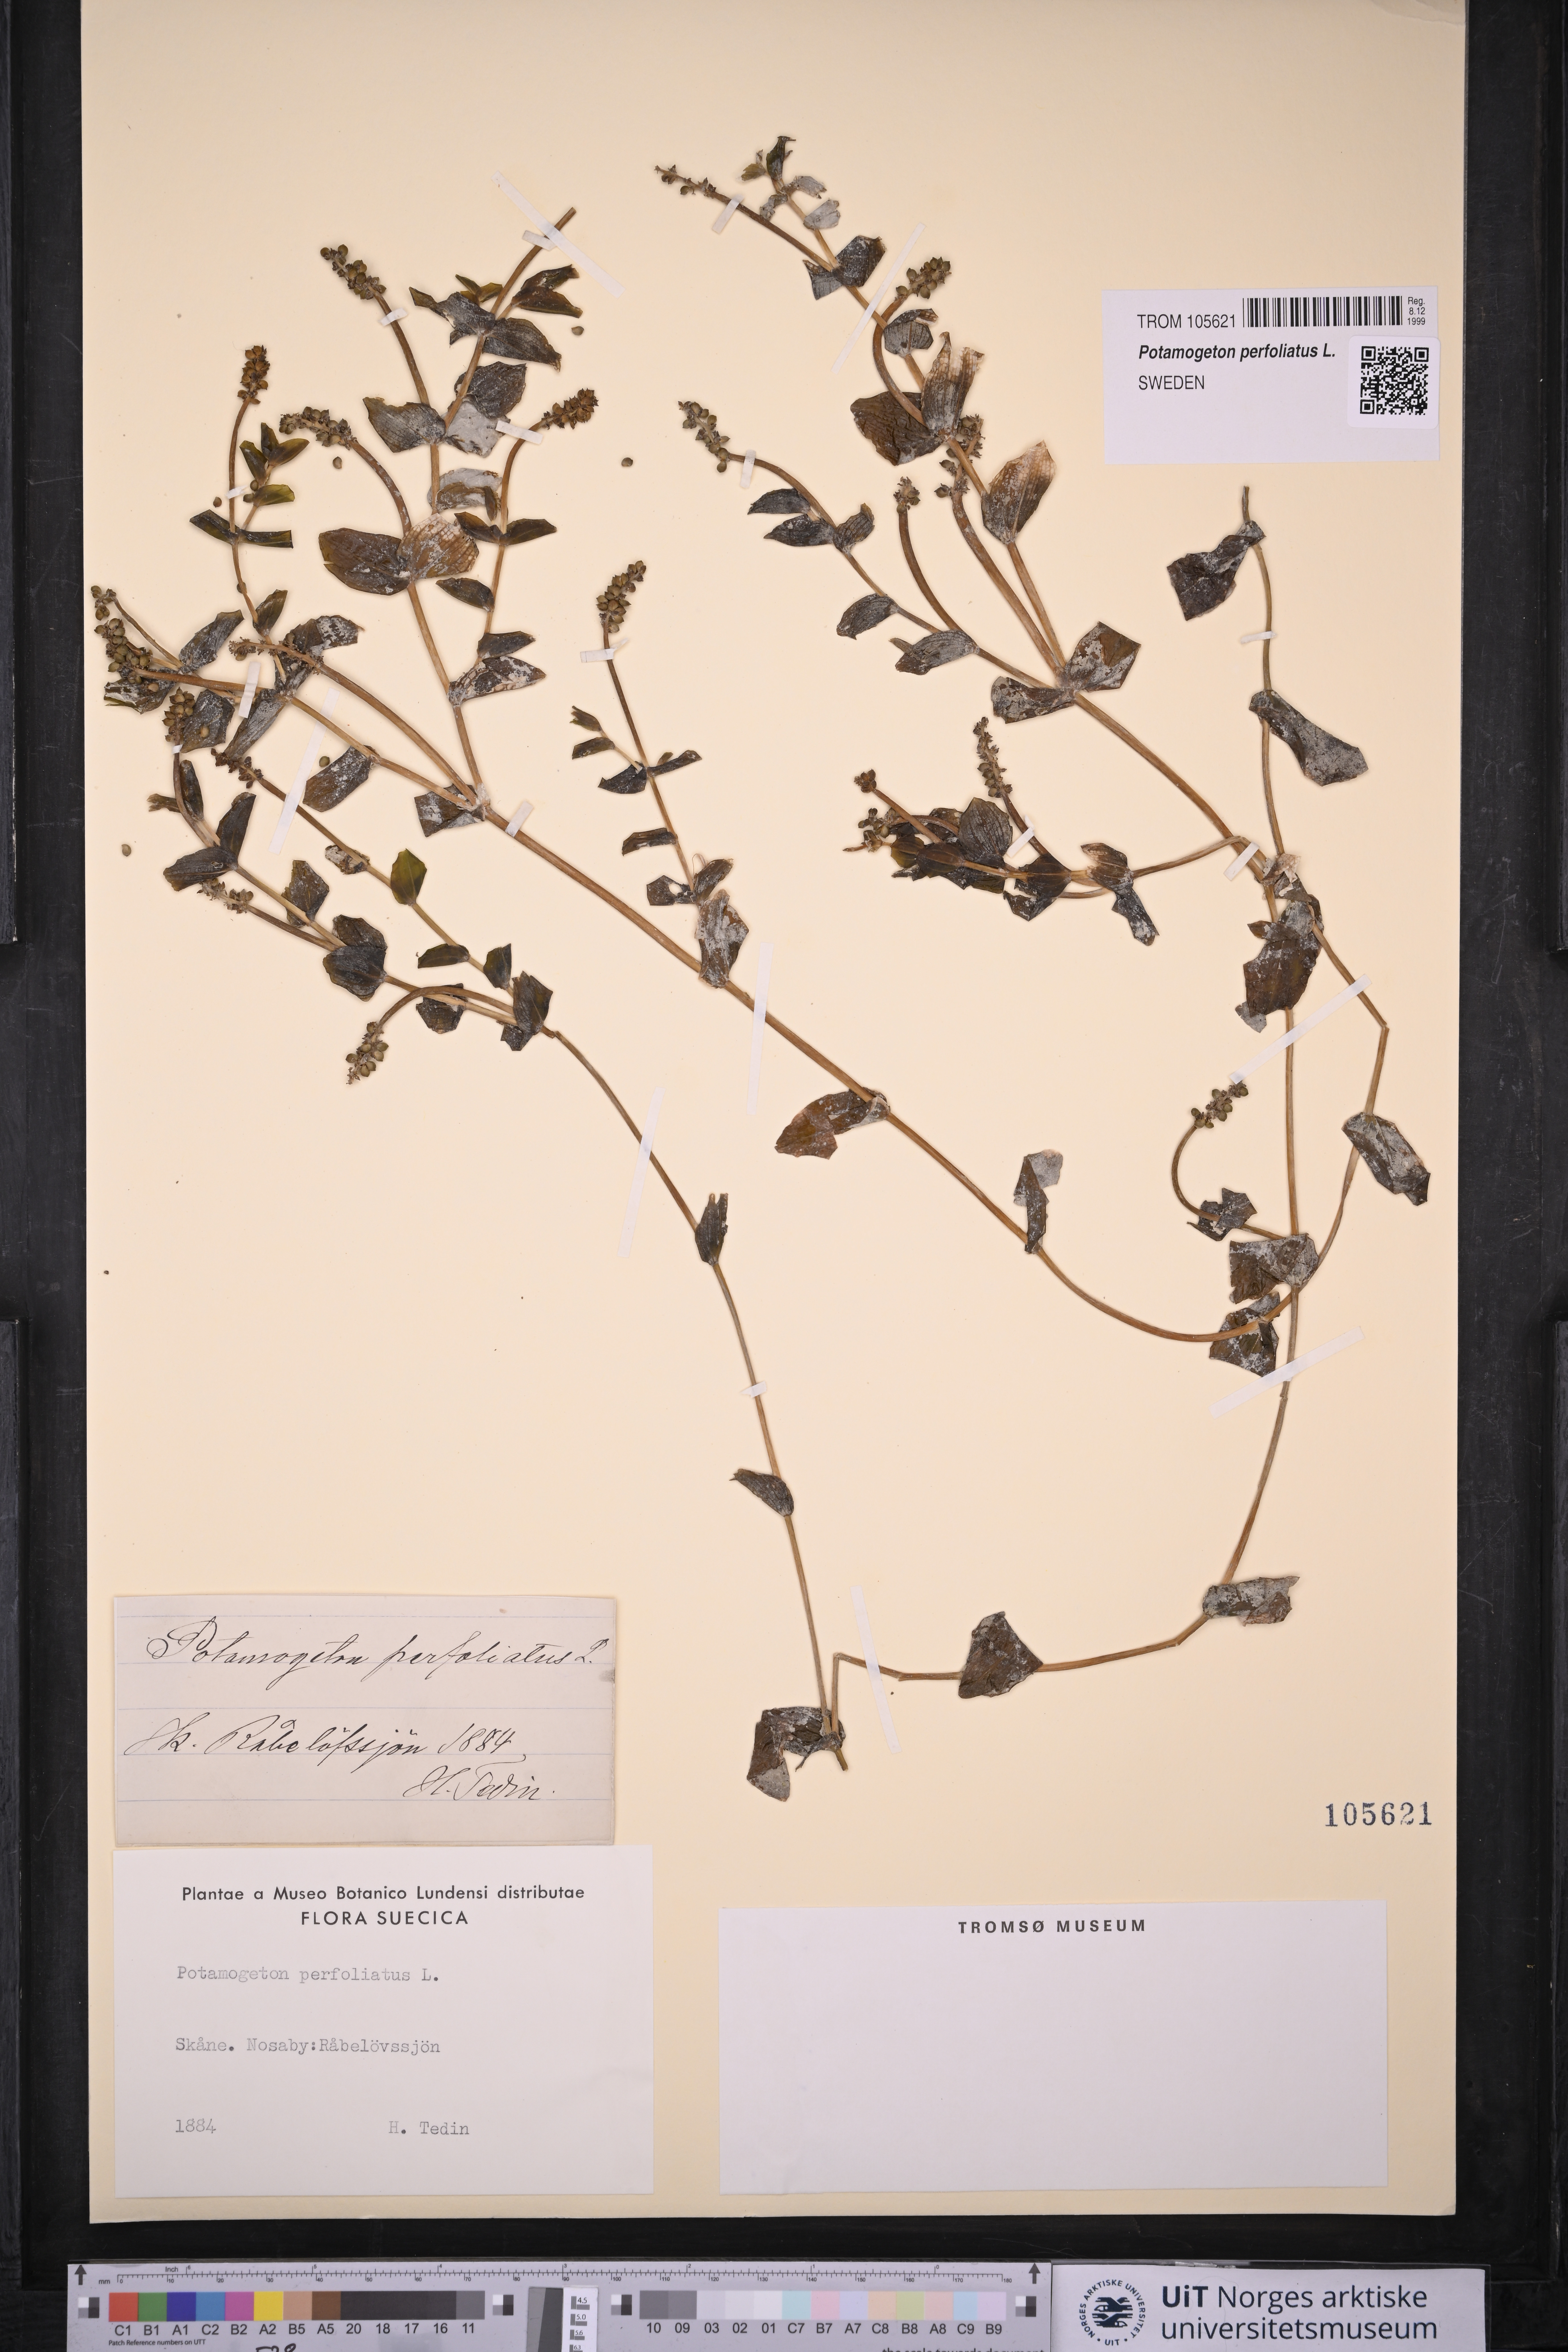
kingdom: Plantae
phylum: Tracheophyta
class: Liliopsida
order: Alismatales
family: Potamogetonaceae
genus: Potamogeton
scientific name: Potamogeton perfoliatus
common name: Perfoliate pondweed
